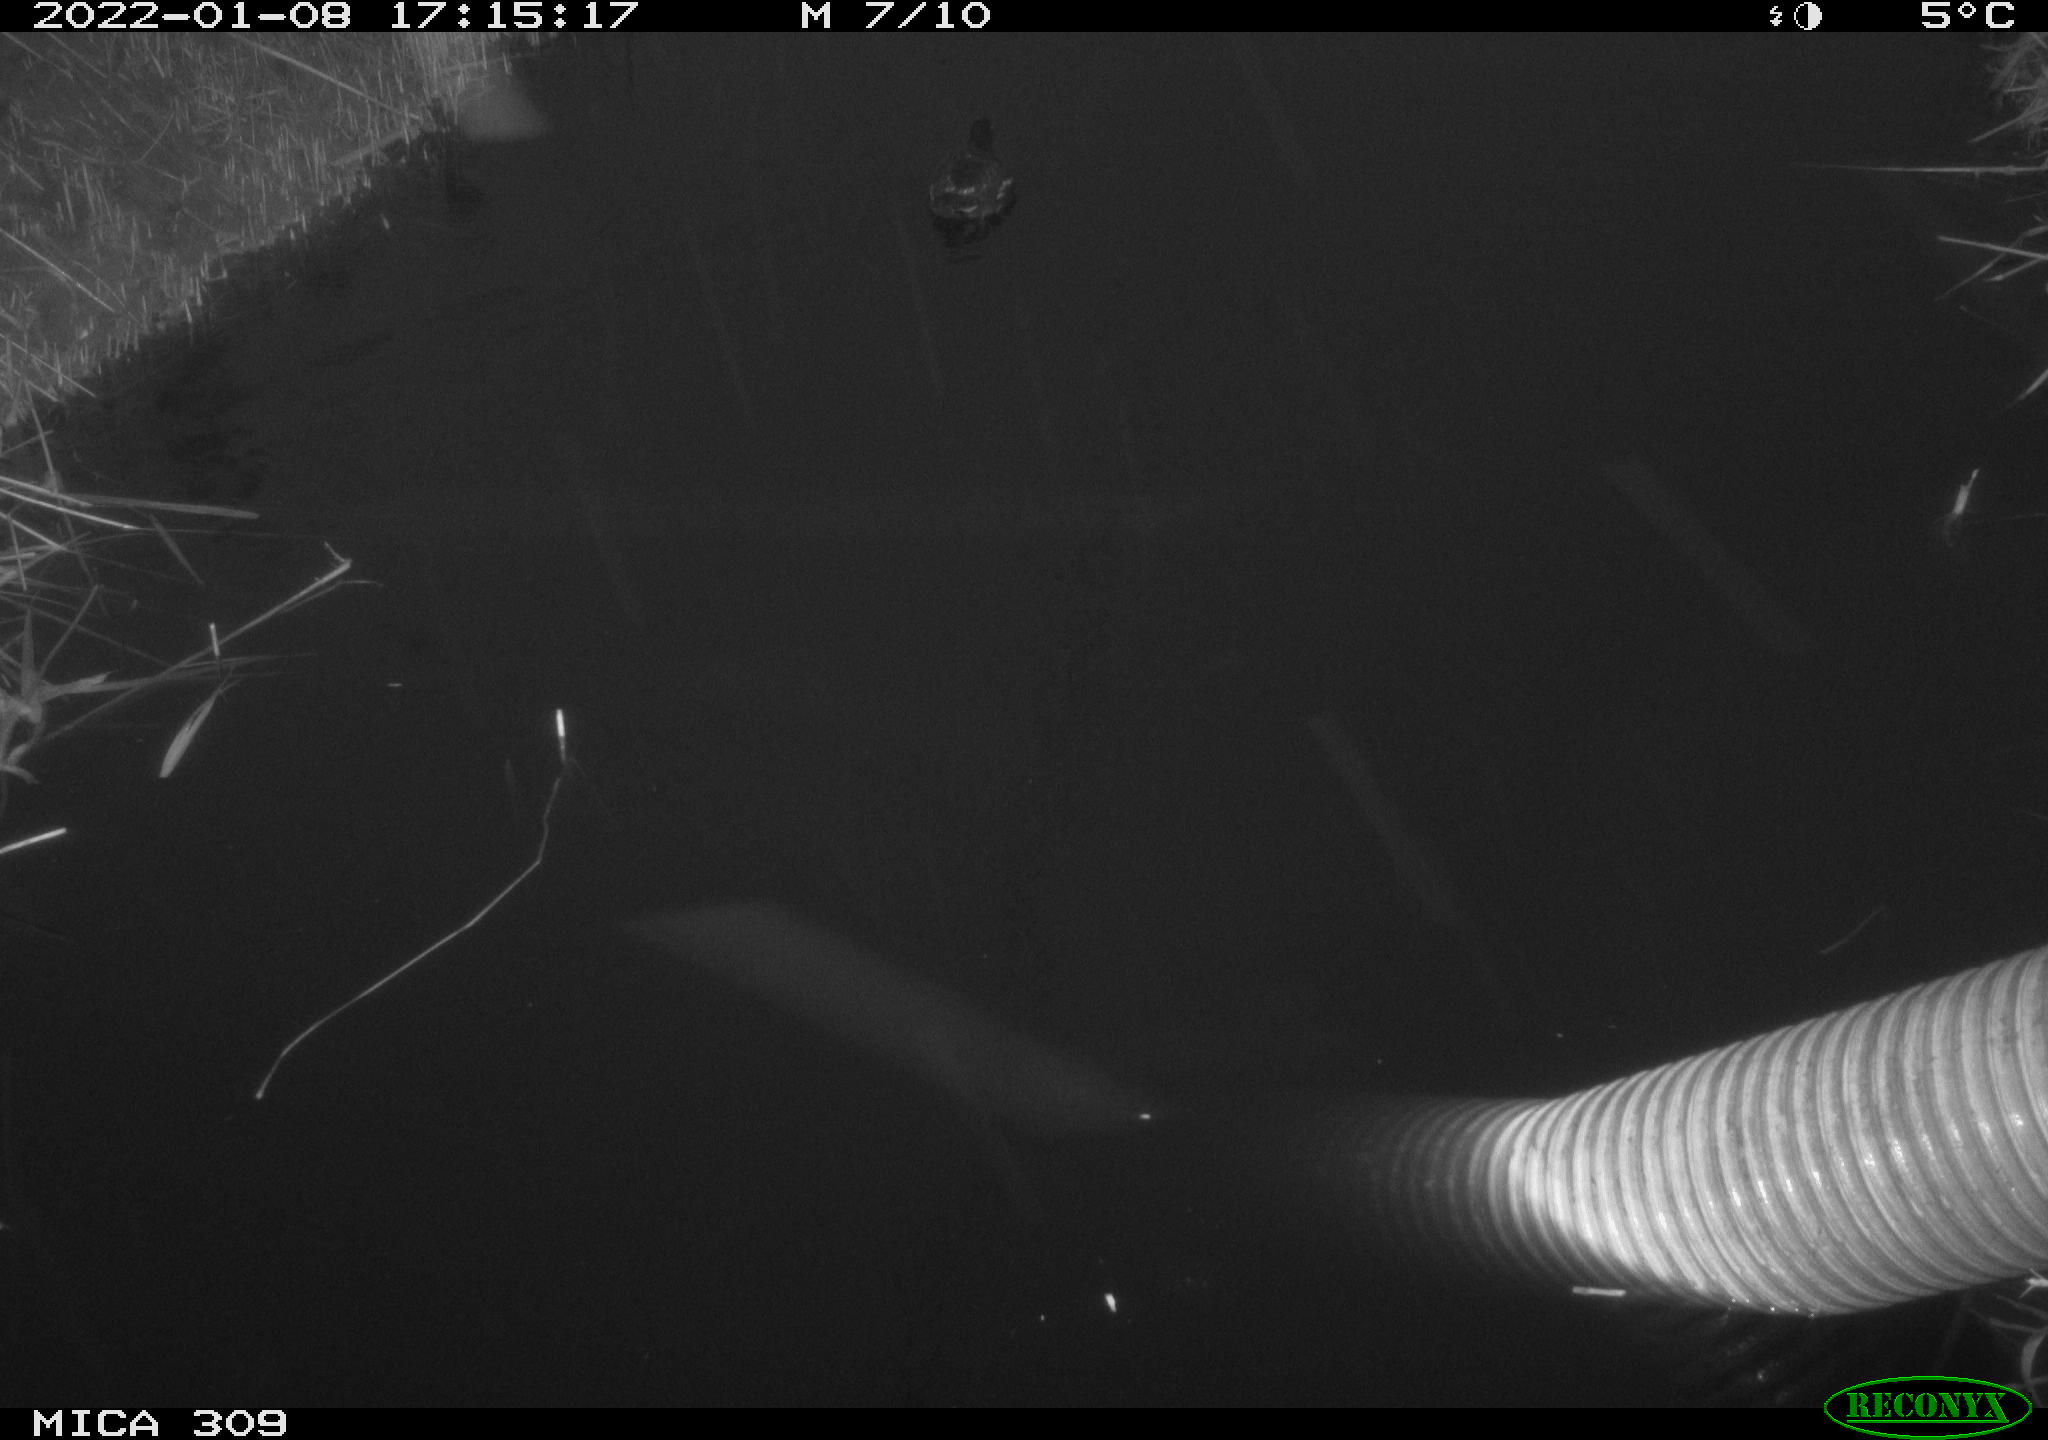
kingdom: Animalia
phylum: Chordata
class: Aves
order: Anseriformes
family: Anatidae
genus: Anas
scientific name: Anas
